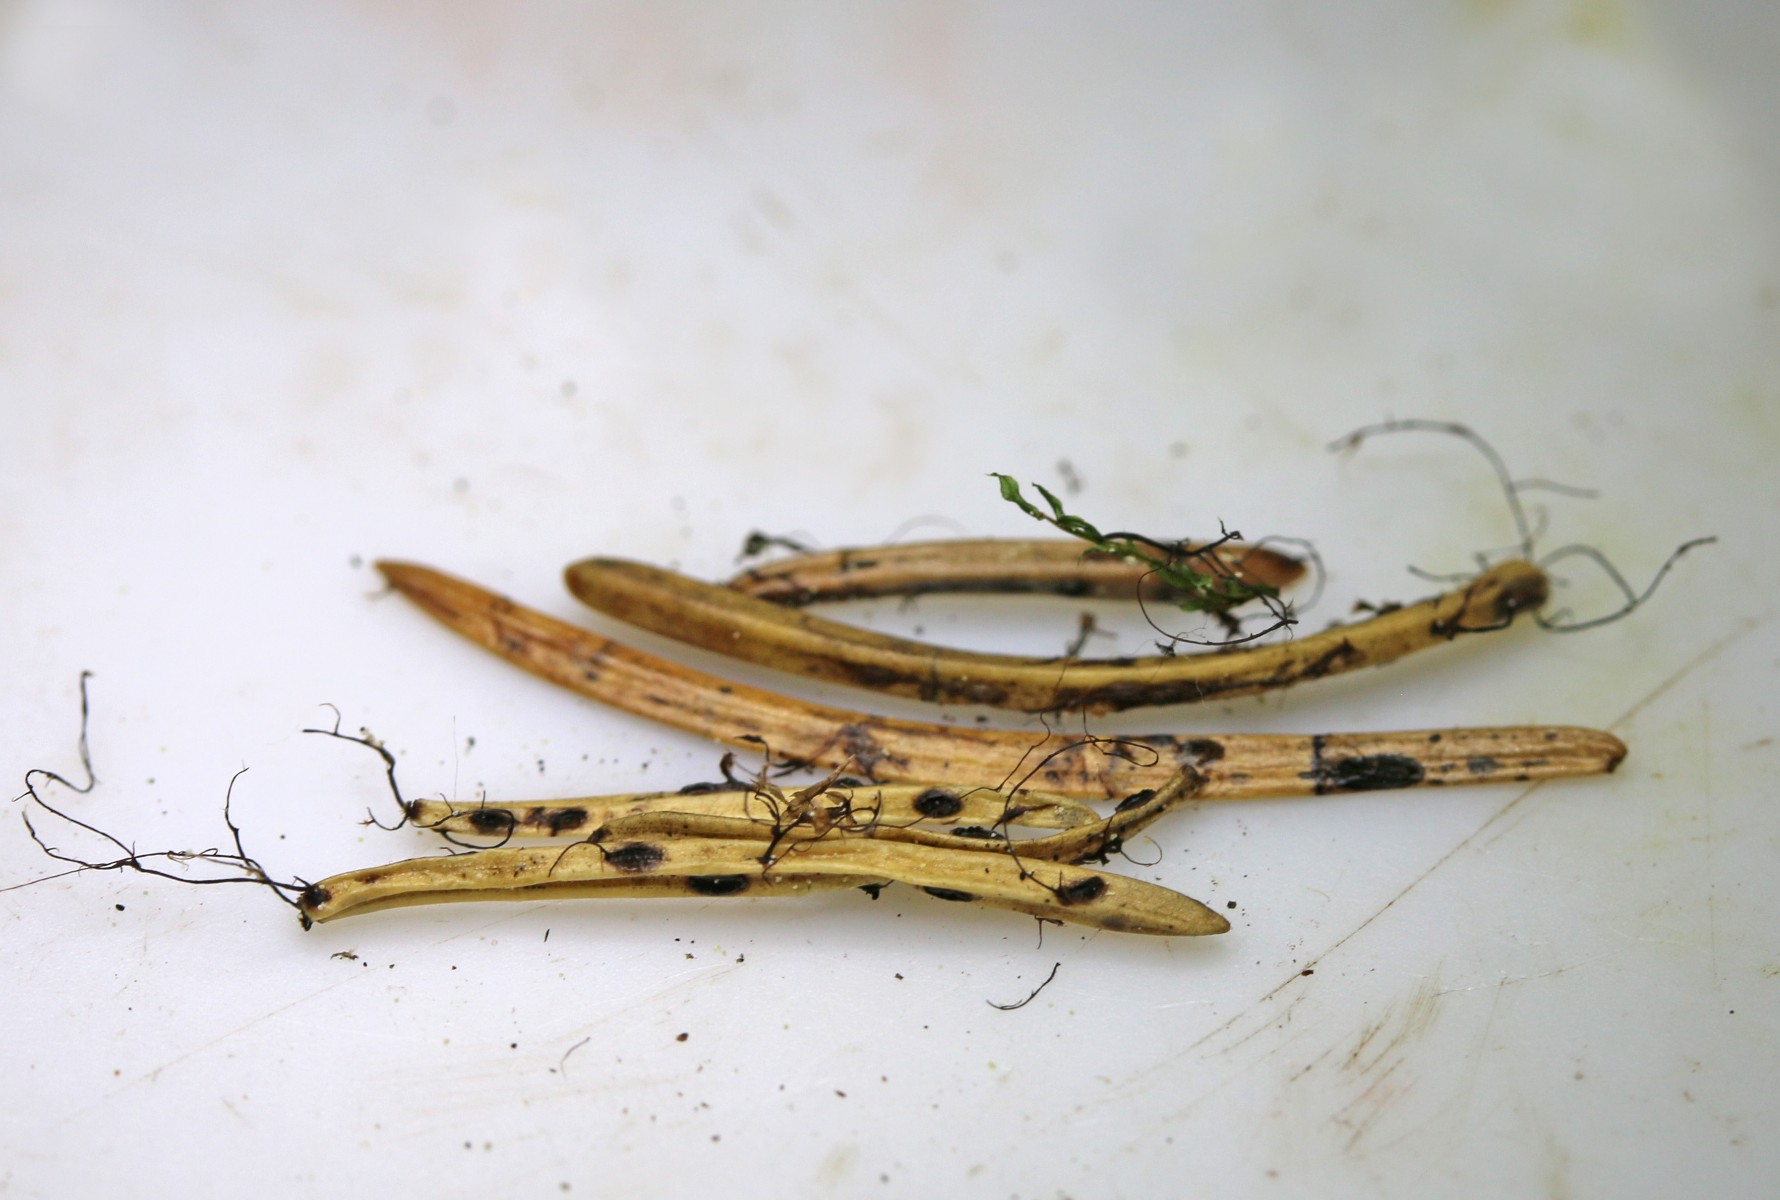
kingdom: Fungi
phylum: Ascomycota
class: Leotiomycetes
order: Rhytismatales
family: Rhytismataceae
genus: Lophodermium
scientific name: Lophodermium piceae
